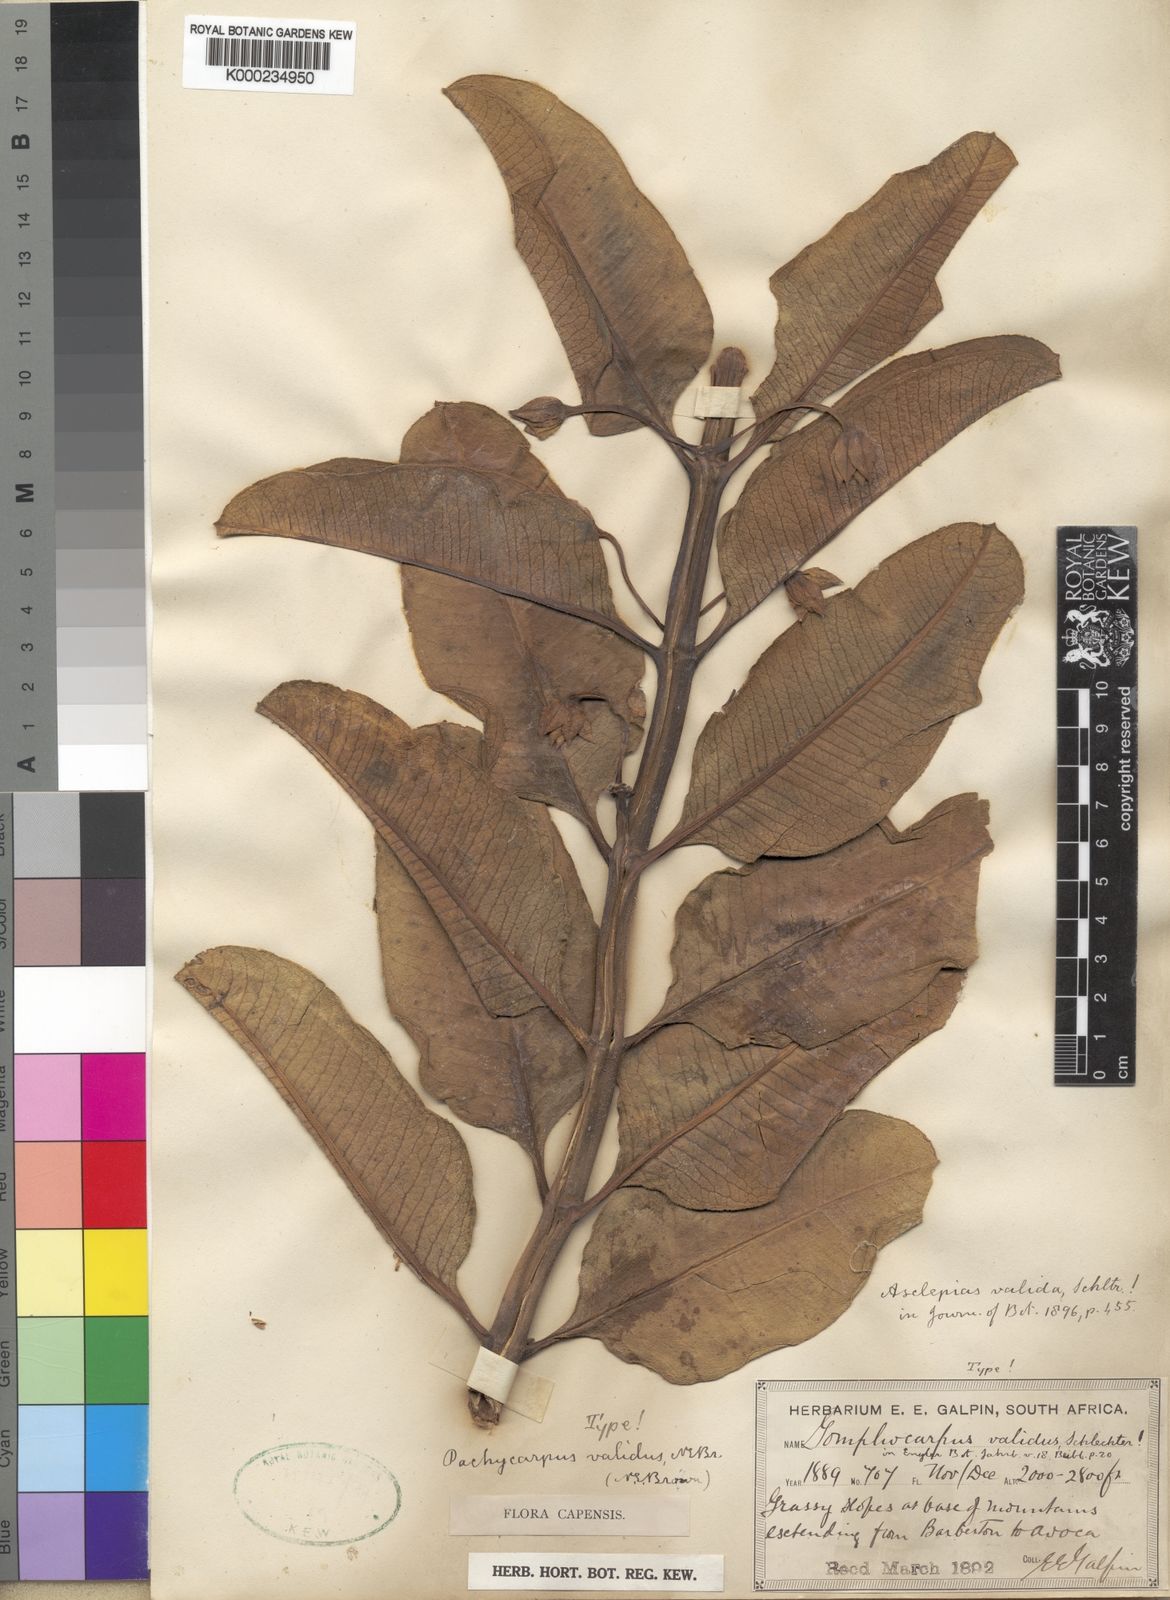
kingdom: Plantae
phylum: Tracheophyta
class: Magnoliopsida
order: Gentianales
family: Apocynaceae
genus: Pachycarpus
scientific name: Pachycarpus asperifolius
